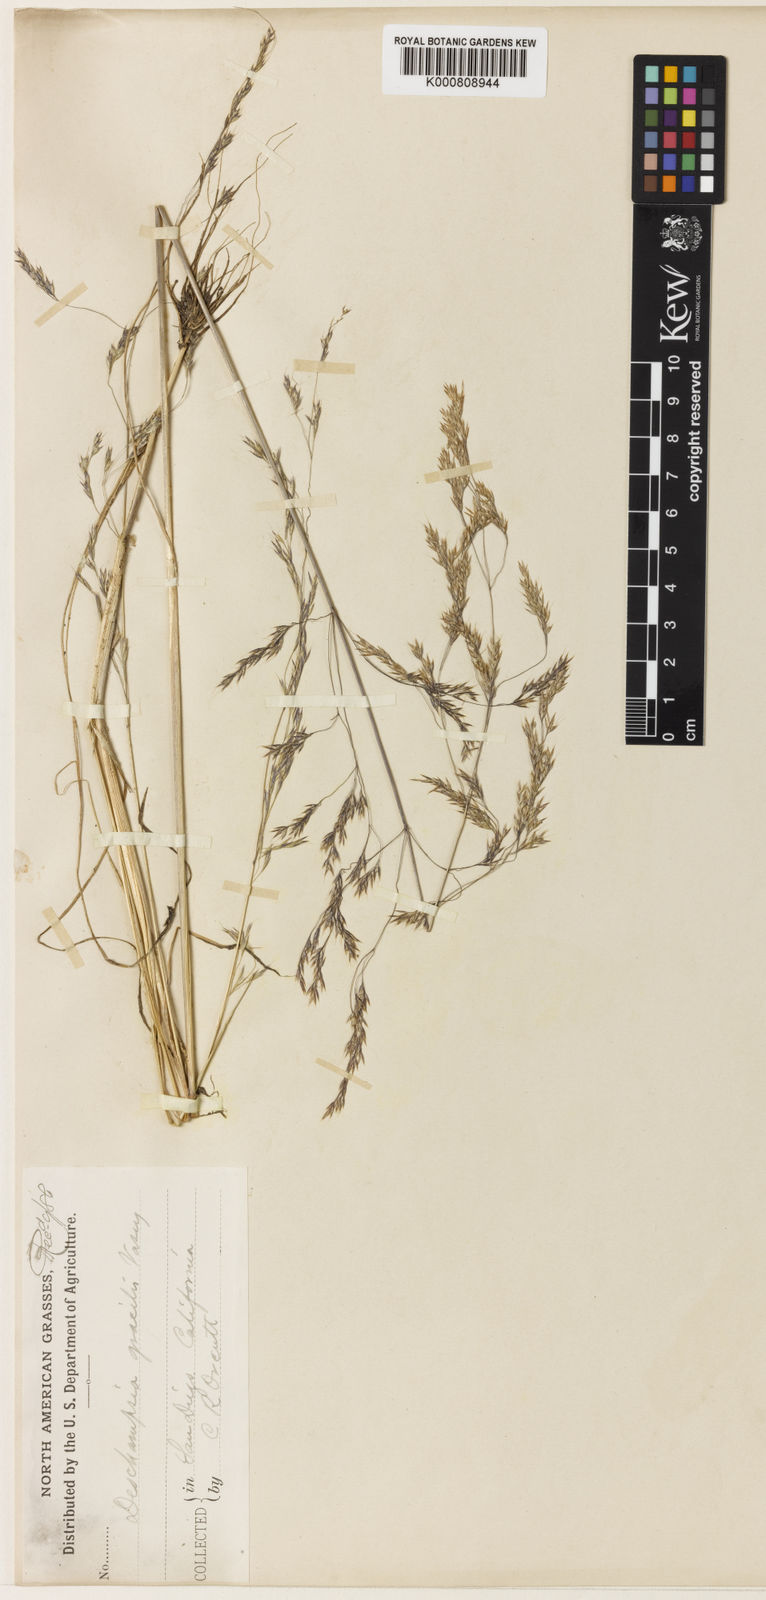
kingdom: Plantae
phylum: Tracheophyta
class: Liliopsida
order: Poales
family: Poaceae
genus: Deschampsia
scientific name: Deschampsia
